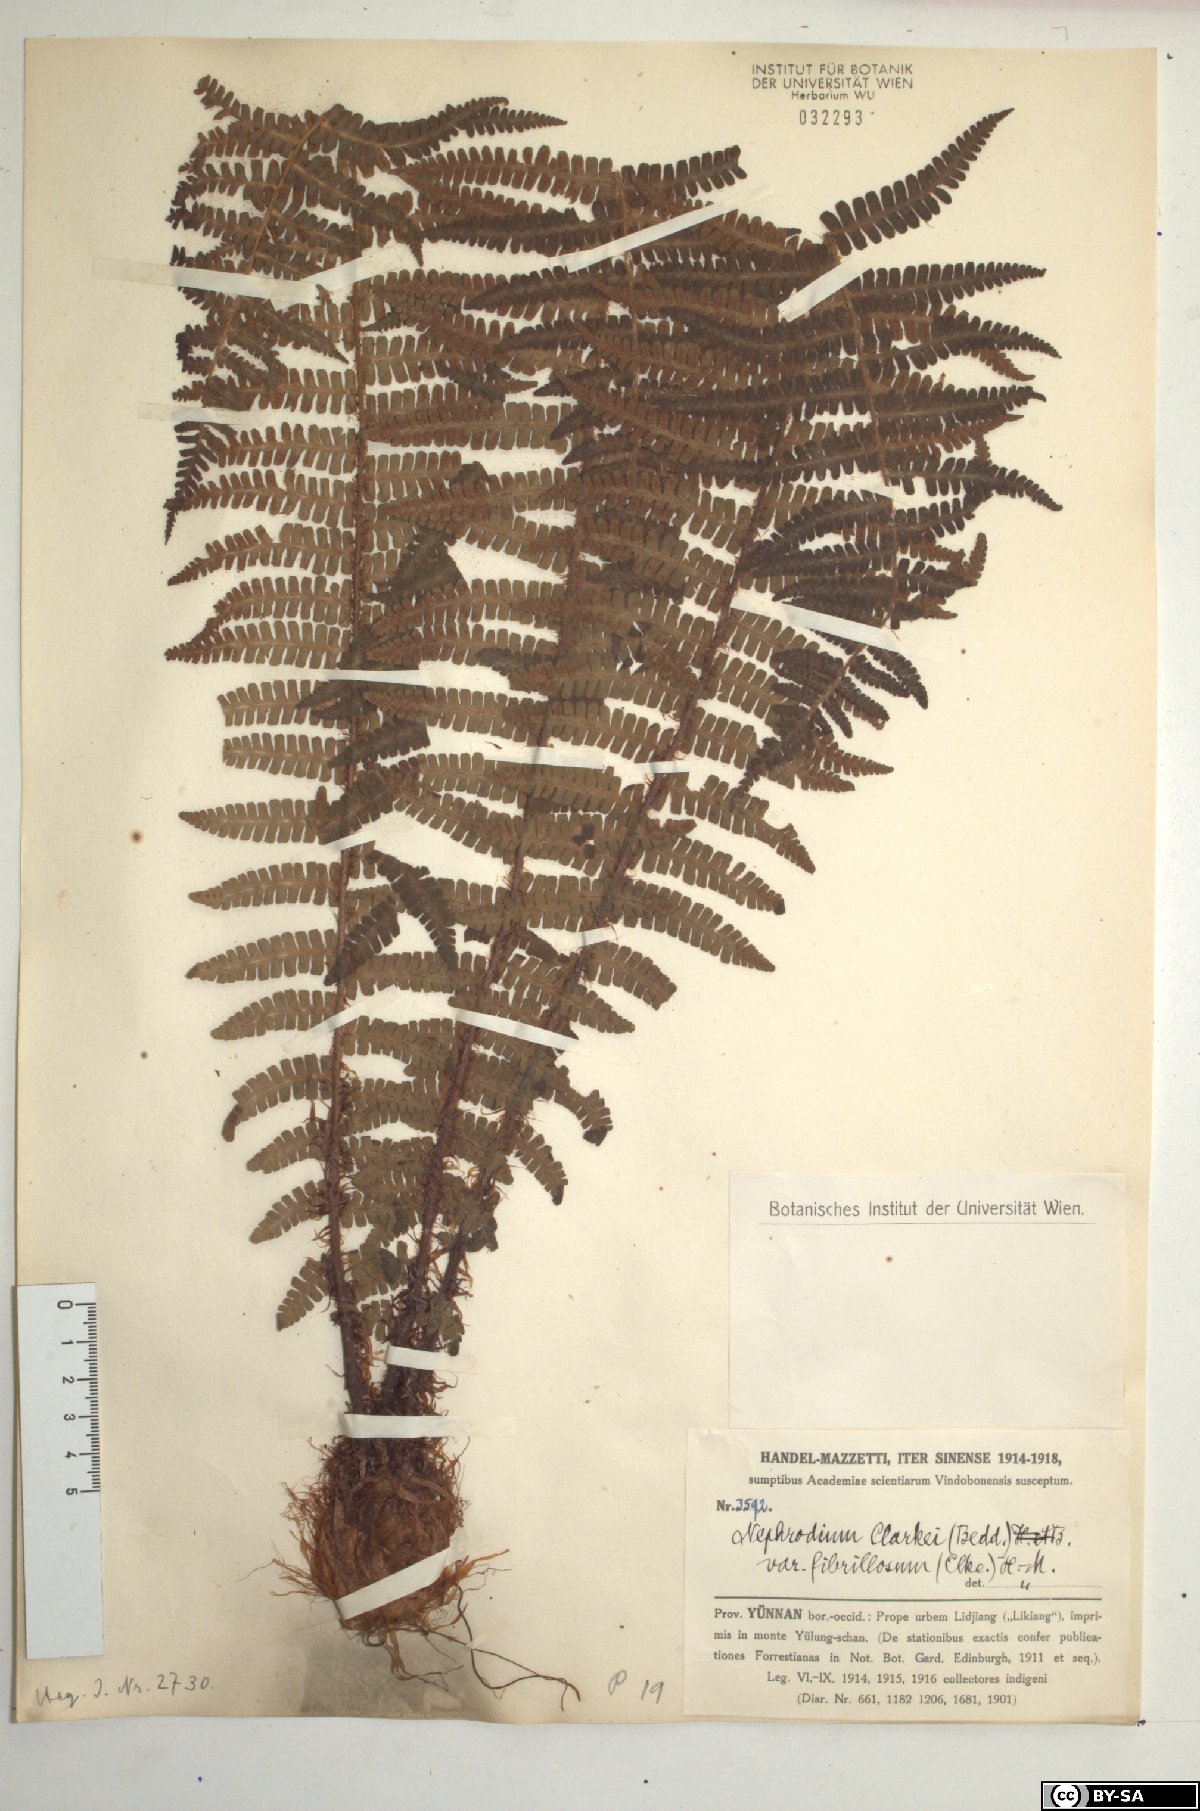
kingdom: Plantae
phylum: Tracheophyta
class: Polypodiopsida
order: Polypodiales
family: Dryopteridaceae
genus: Dryopteris
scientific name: Dryopteris xanthomelas
